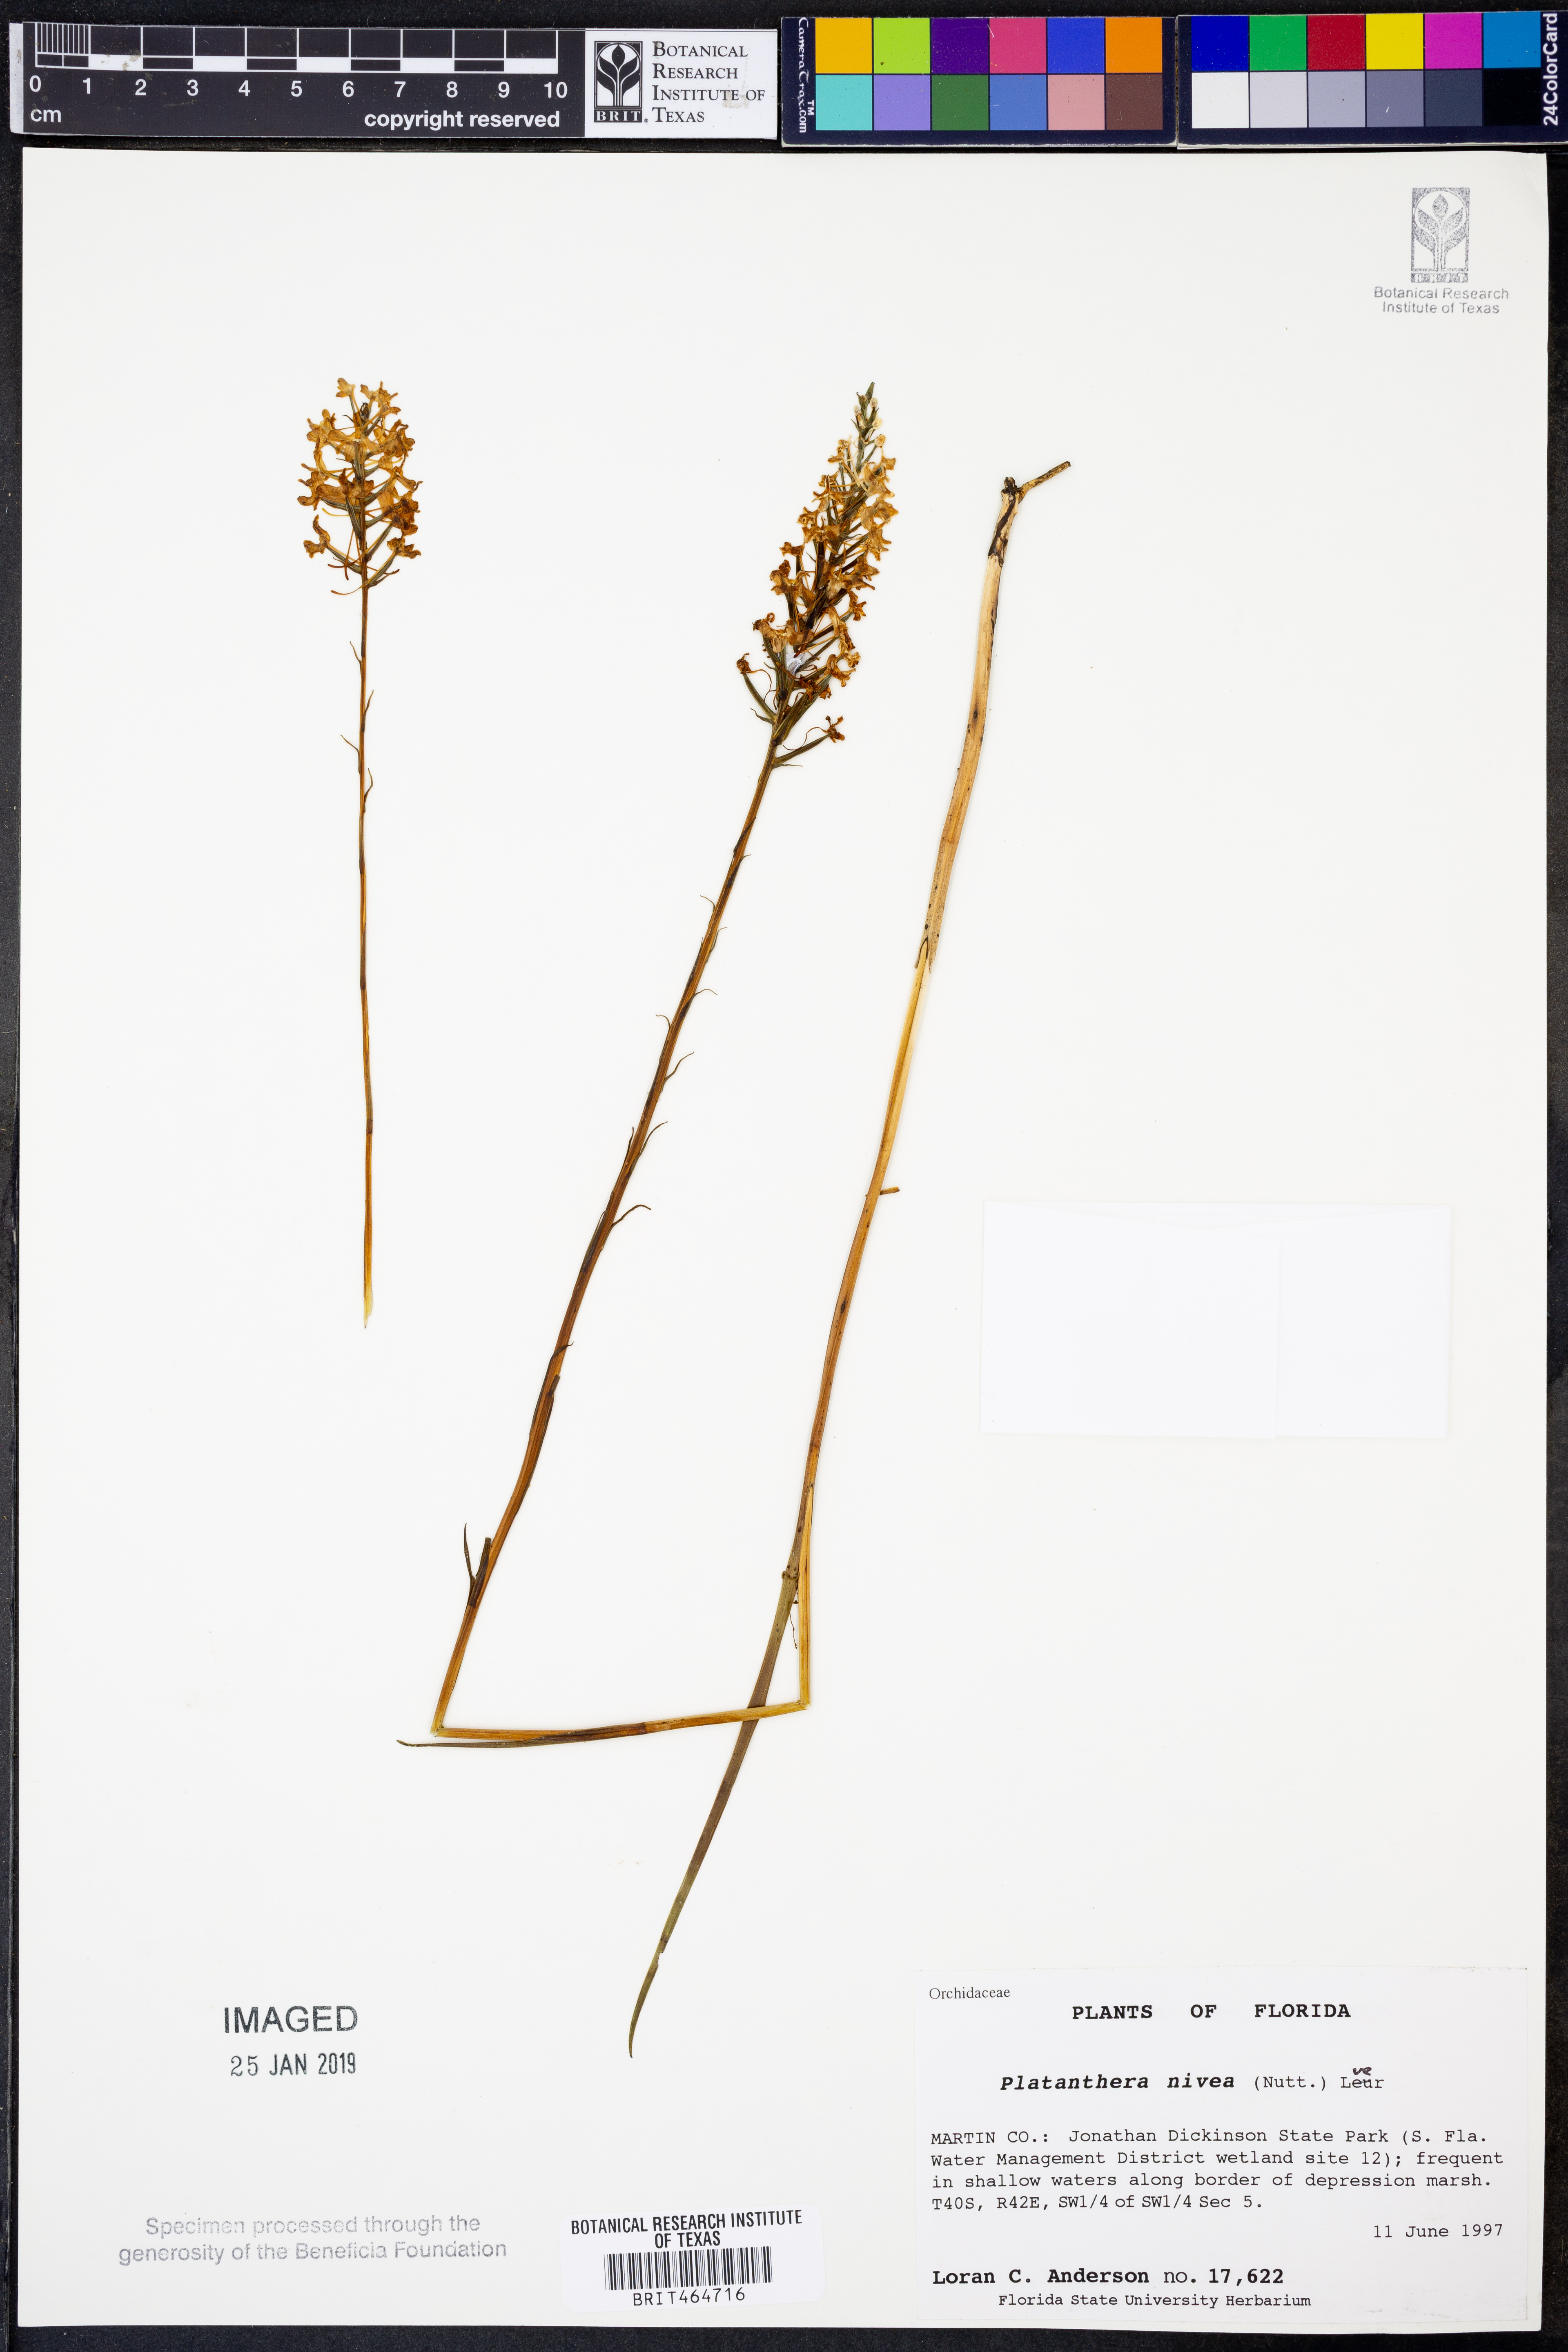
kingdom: Plantae
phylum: Tracheophyta
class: Liliopsida
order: Asparagales
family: Orchidaceae
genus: Platanthera
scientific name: Platanthera nivea
